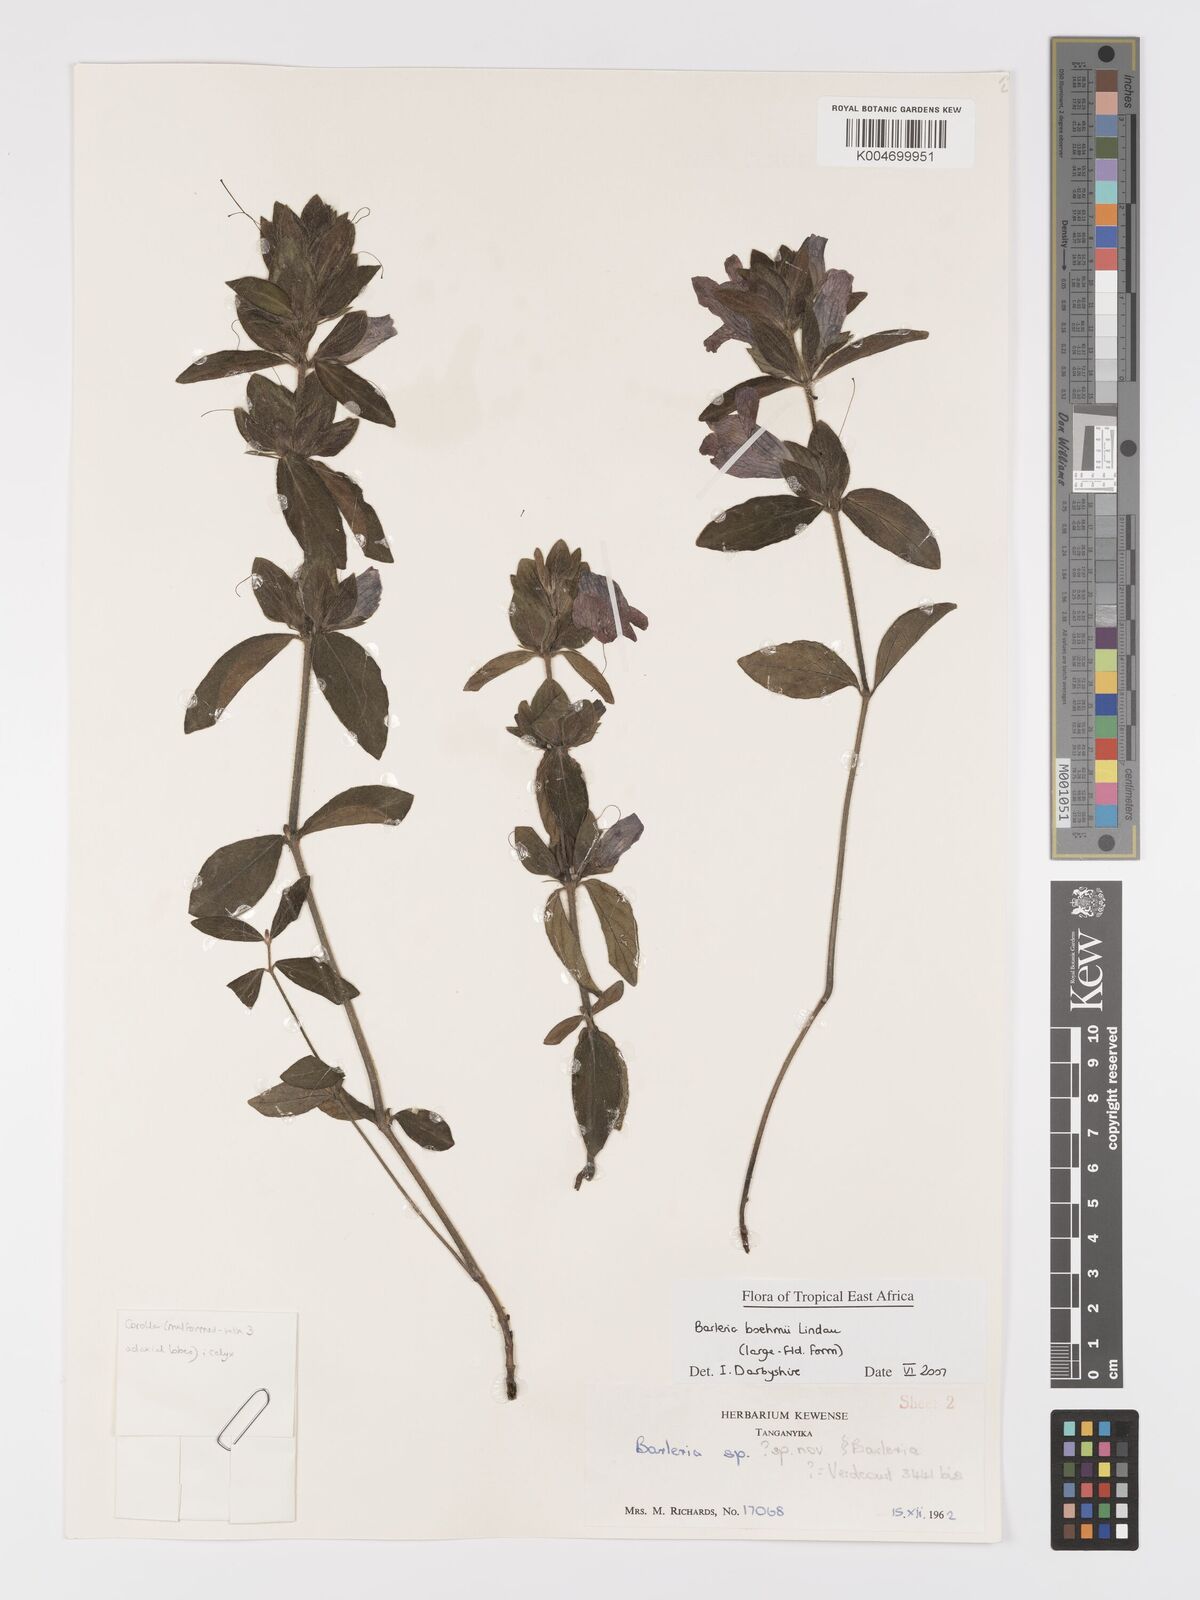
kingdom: Plantae
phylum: Tracheophyta
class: Magnoliopsida
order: Lamiales
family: Acanthaceae
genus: Barleria
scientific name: Barleria boehmii
